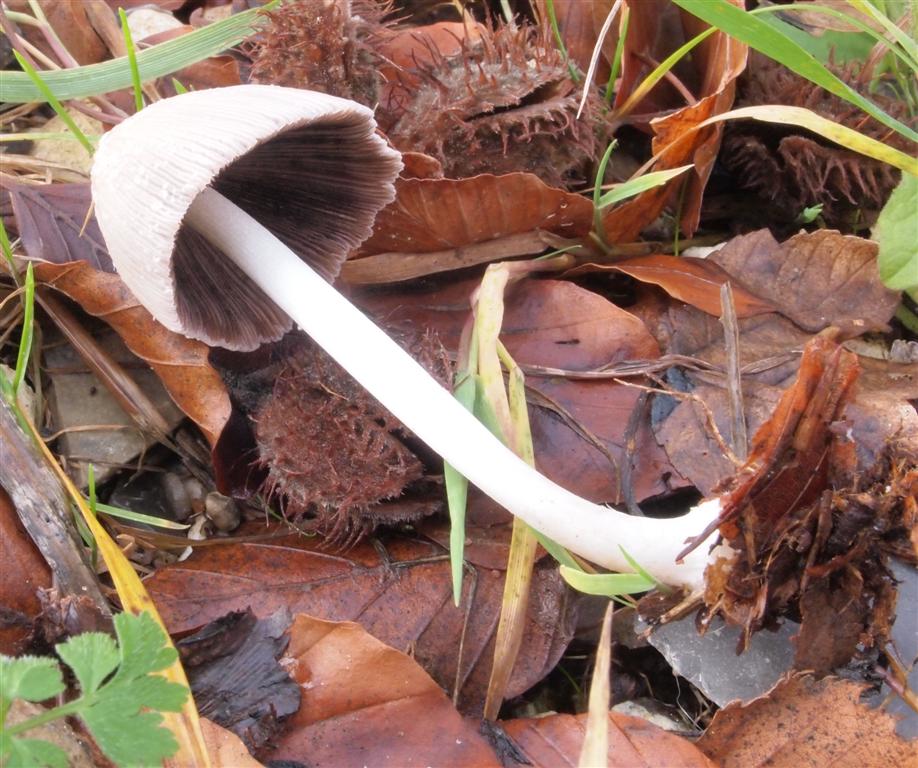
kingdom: Fungi
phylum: Basidiomycota
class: Agaricomycetes
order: Agaricales
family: Psathyrellaceae
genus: Coprinellus
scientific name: Coprinellus xanthothrix
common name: gultrådet blækhat
